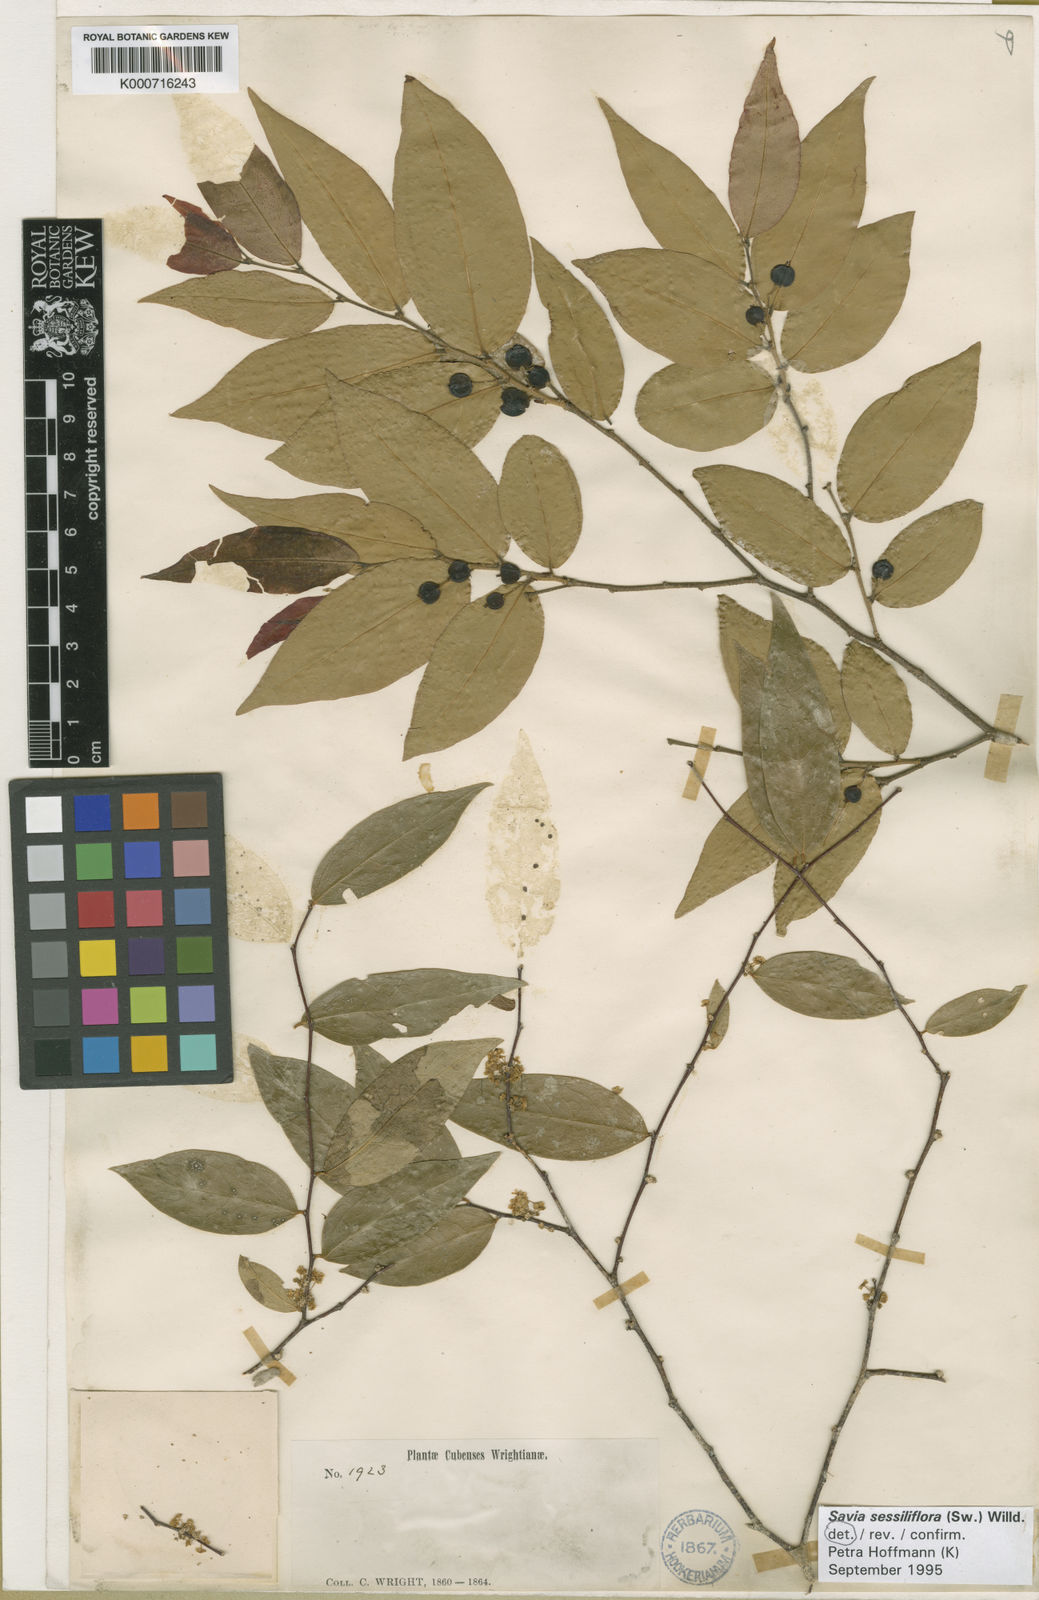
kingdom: Plantae
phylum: Tracheophyta
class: Magnoliopsida
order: Malpighiales
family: Phyllanthaceae
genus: Savia
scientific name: Savia sessiliflora
